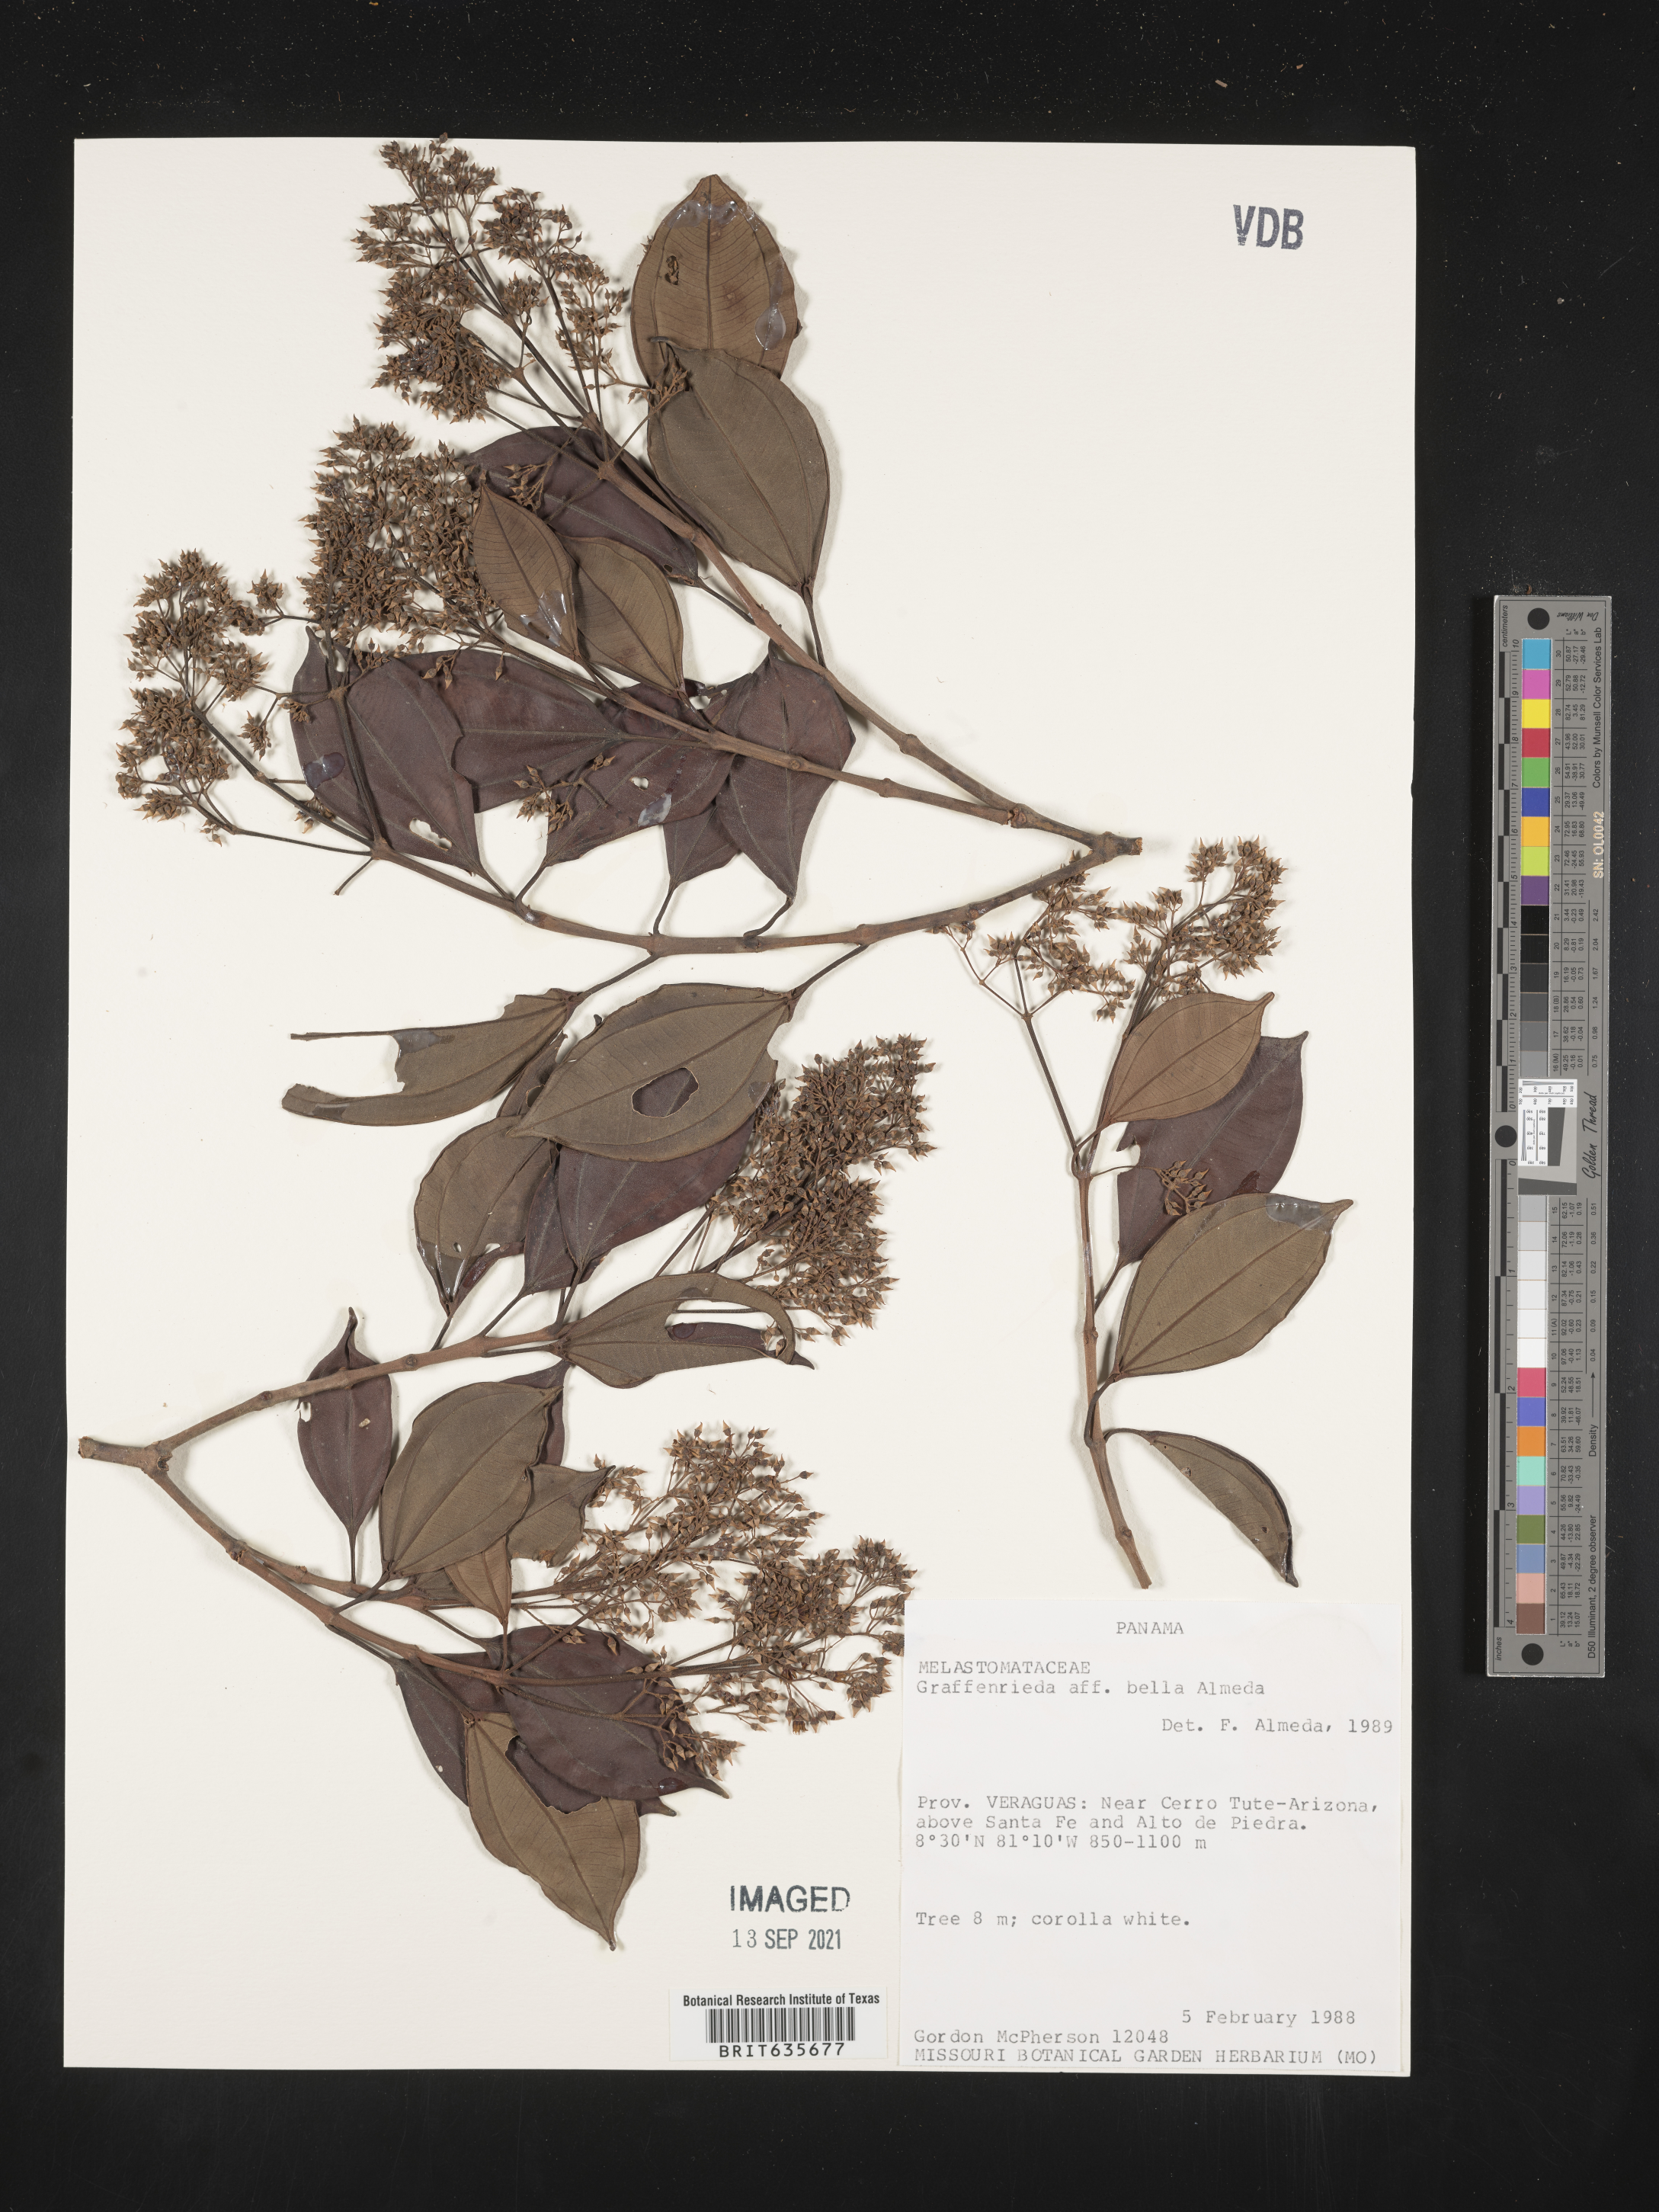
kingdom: Plantae
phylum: Tracheophyta
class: Magnoliopsida
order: Myrtales
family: Melastomataceae
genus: Graffenrieda
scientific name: Graffenrieda
